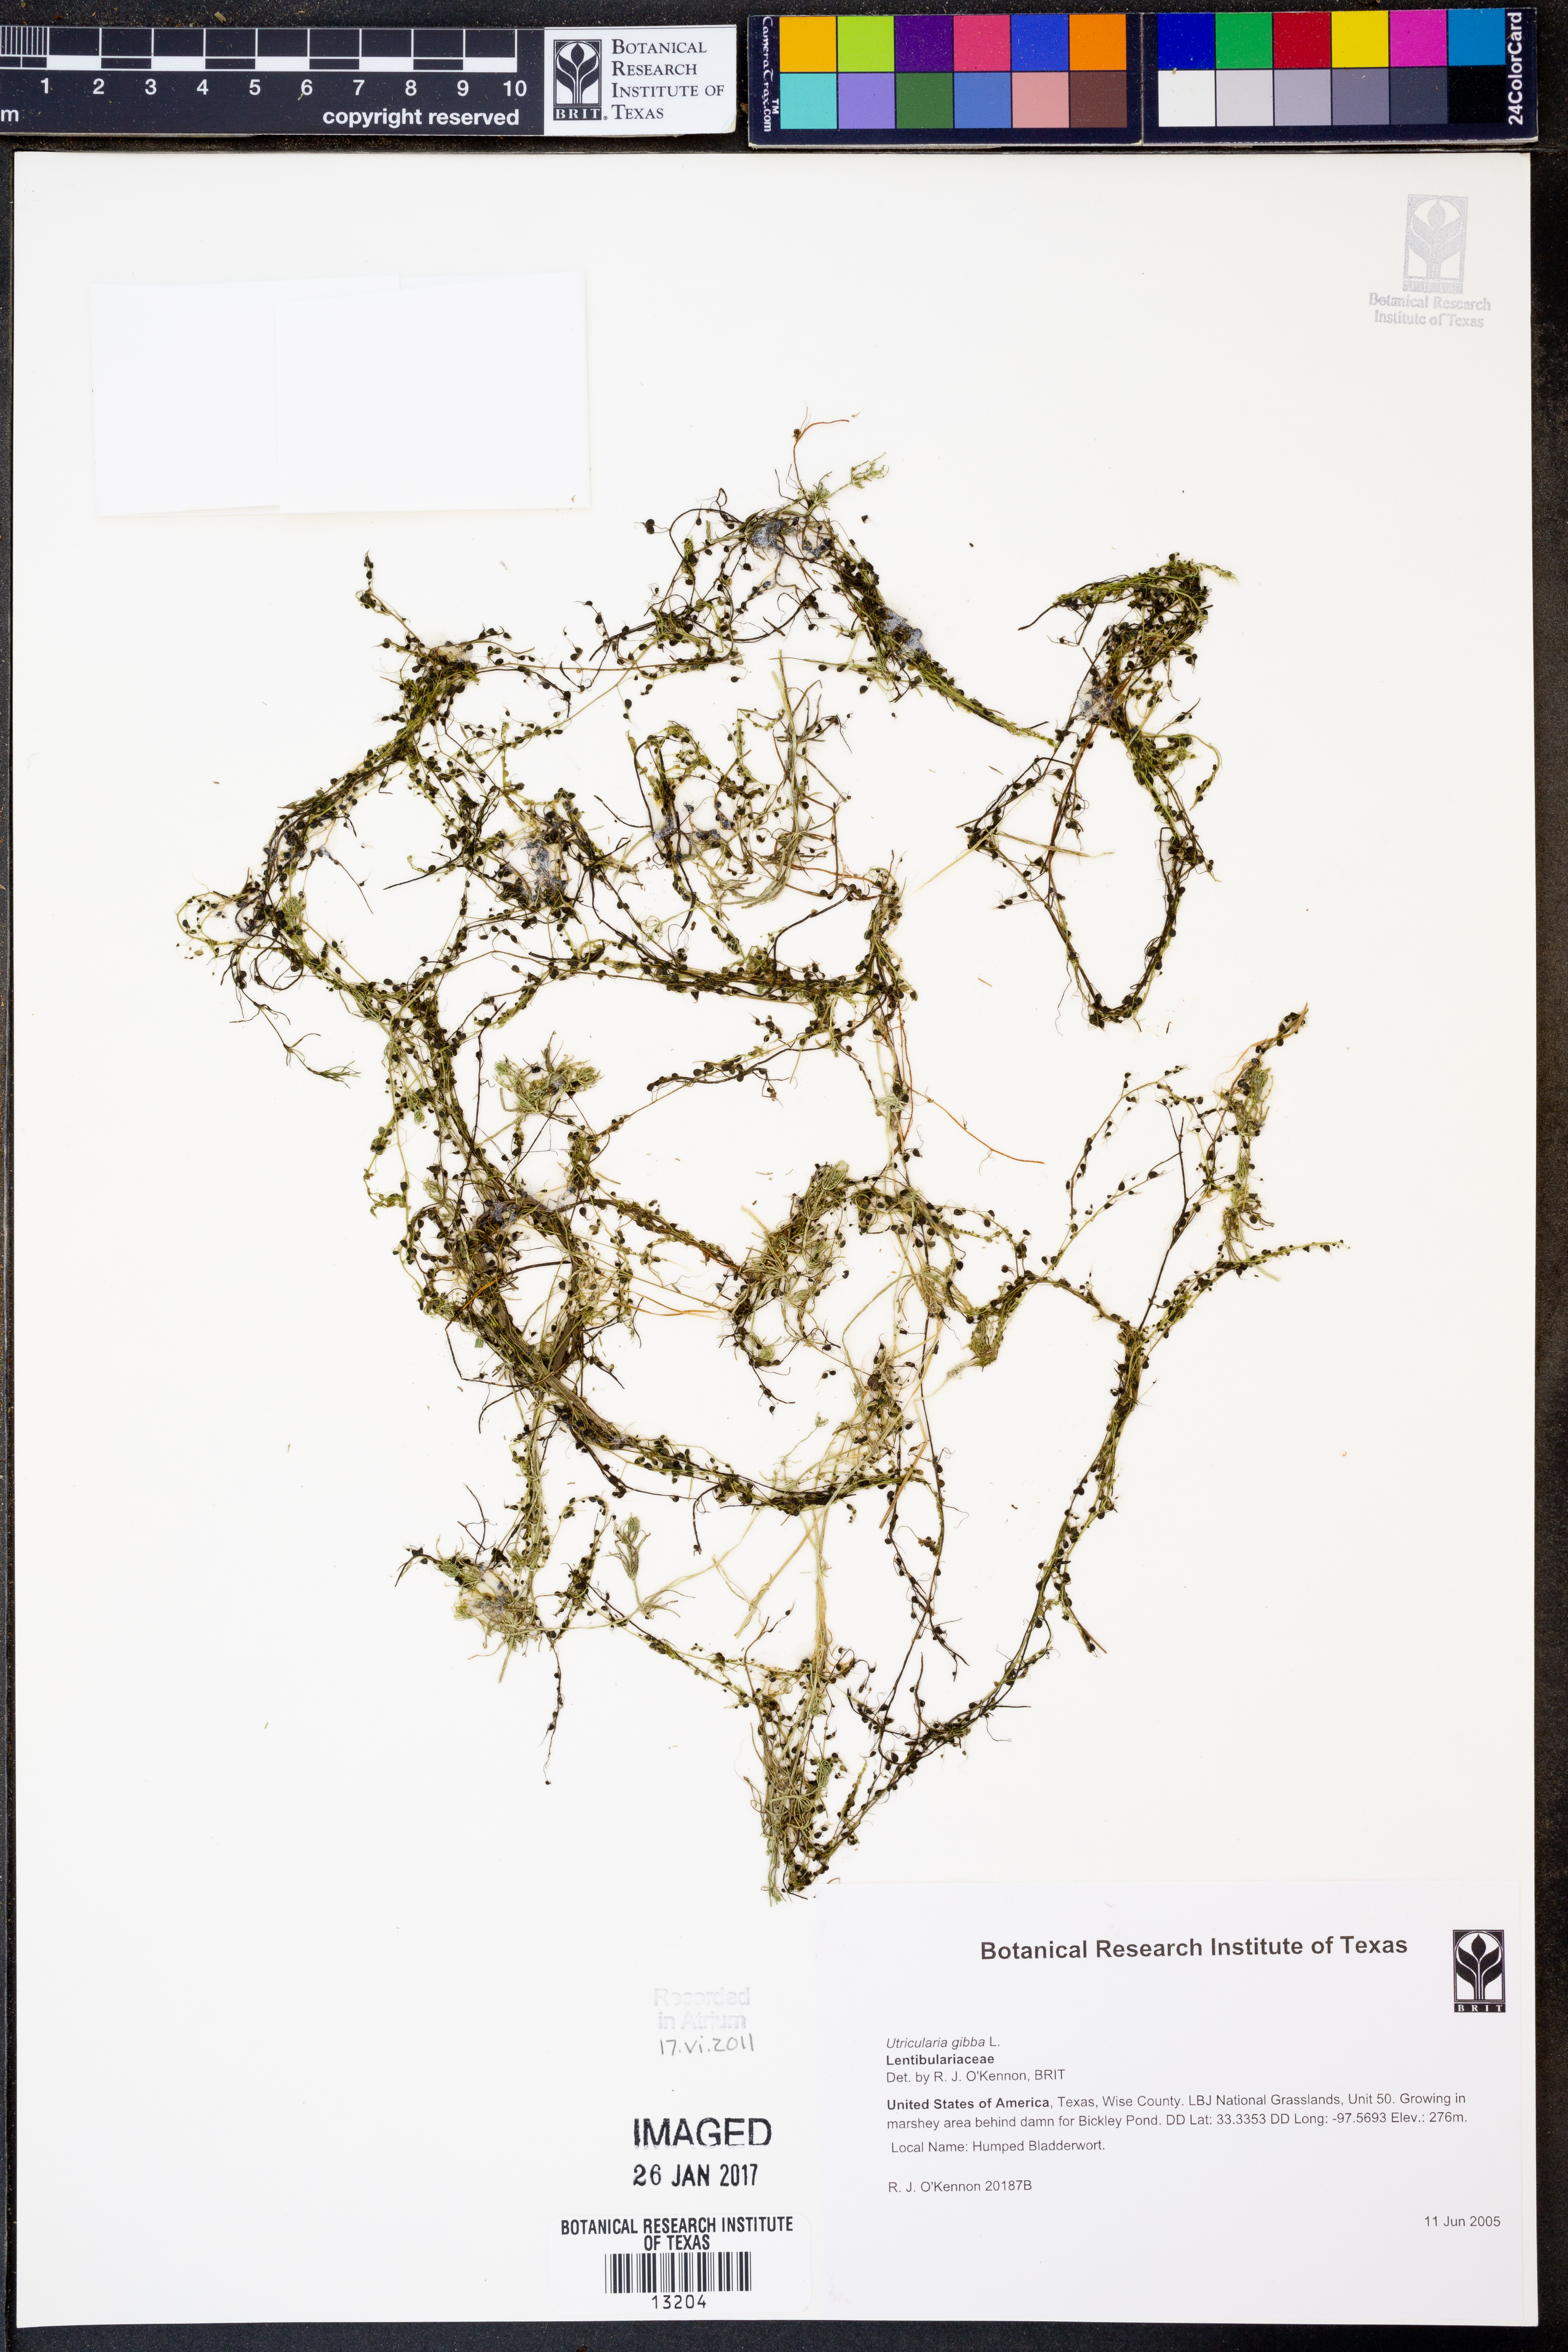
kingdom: Plantae
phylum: Tracheophyta
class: Magnoliopsida
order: Lamiales
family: Lentibulariaceae
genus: Utricularia
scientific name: Utricularia gibba
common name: Humped bladderwort
